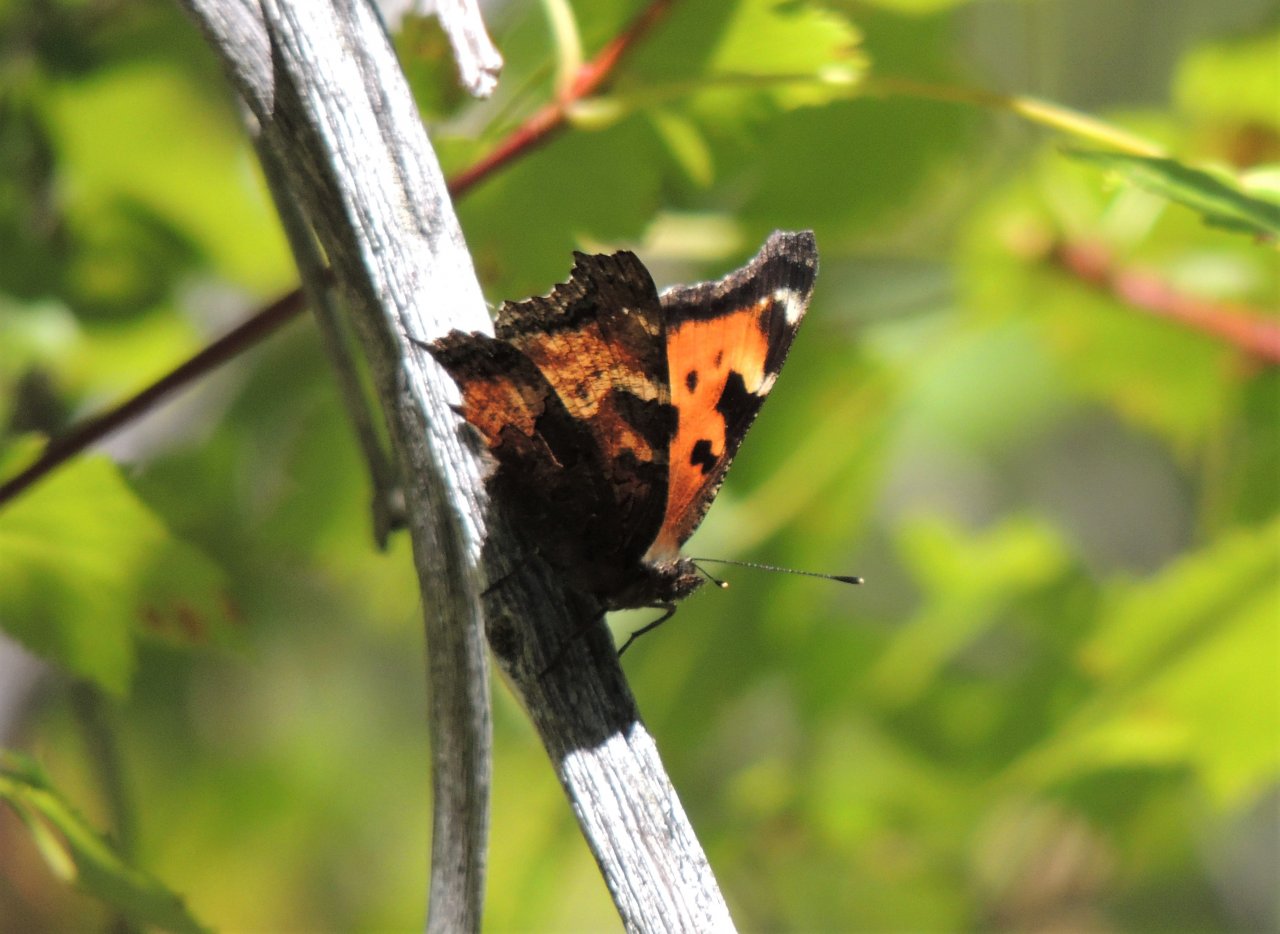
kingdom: Animalia
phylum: Arthropoda
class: Insecta
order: Lepidoptera
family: Nymphalidae
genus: Nymphalis
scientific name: Nymphalis californica
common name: California Tortoiseshell
